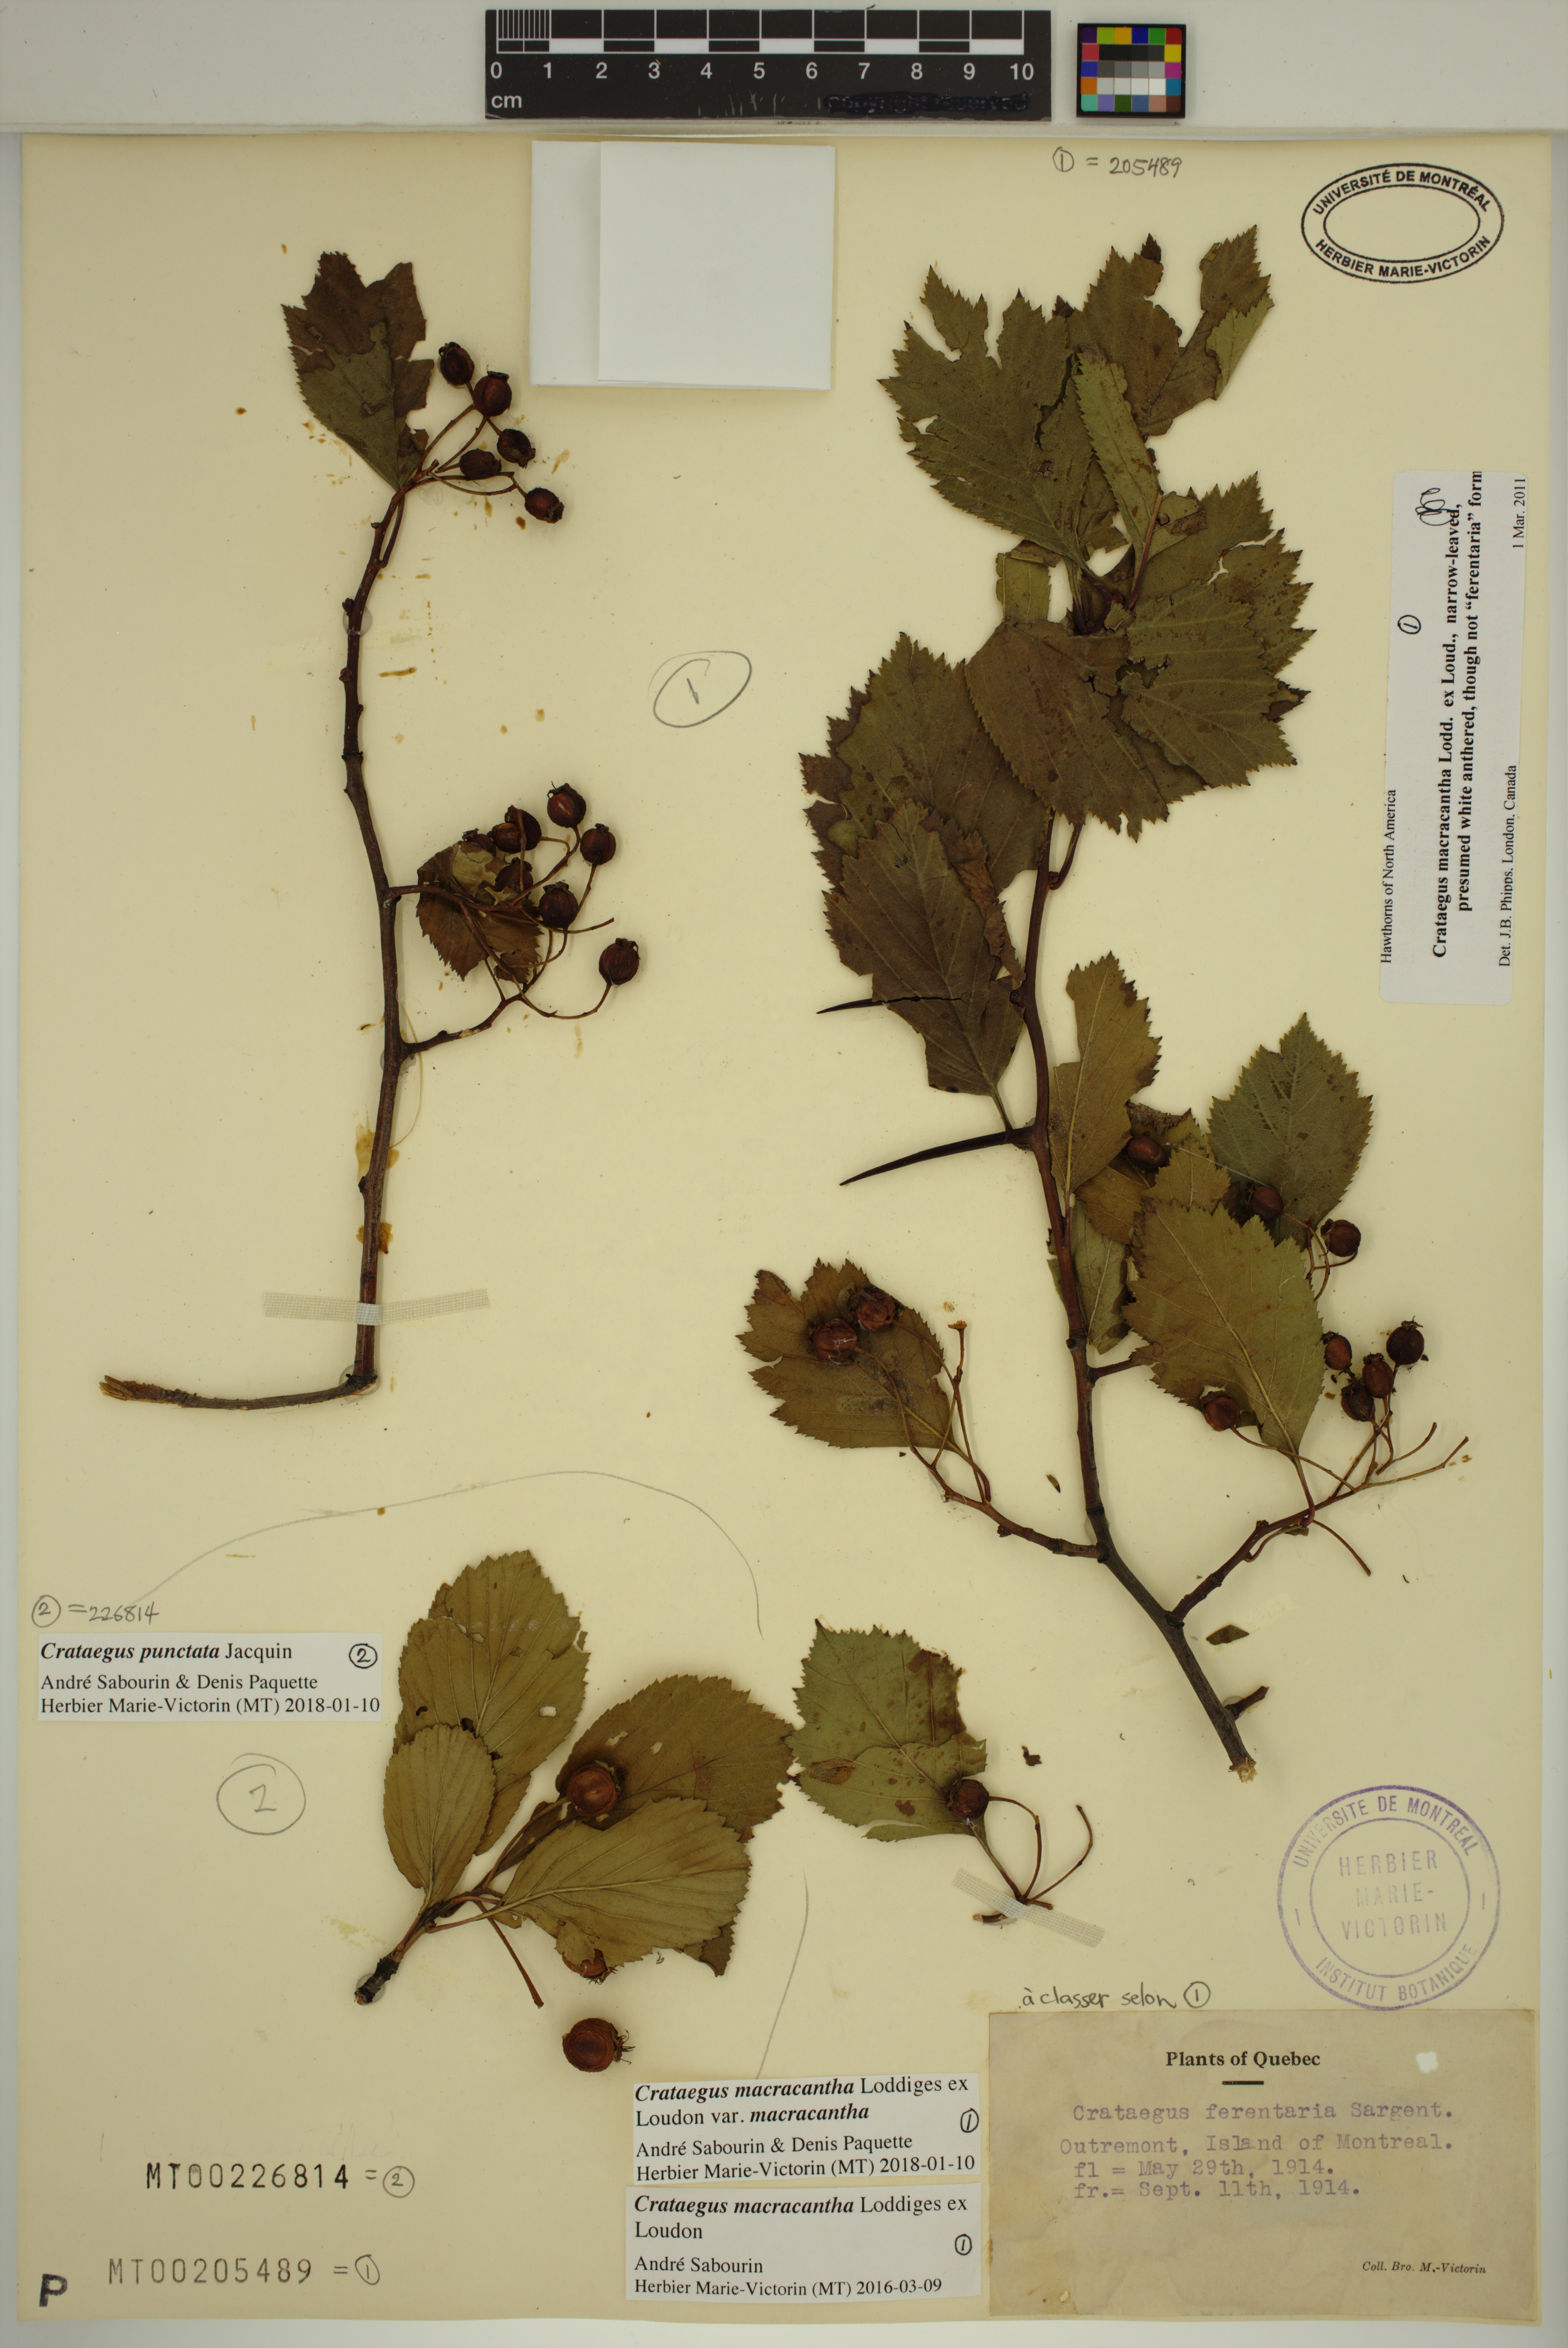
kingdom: Plantae
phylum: Tracheophyta
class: Magnoliopsida
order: Rosales
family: Rosaceae
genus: Crataegus
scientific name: Crataegus punctata
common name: Dotted hawthorn
